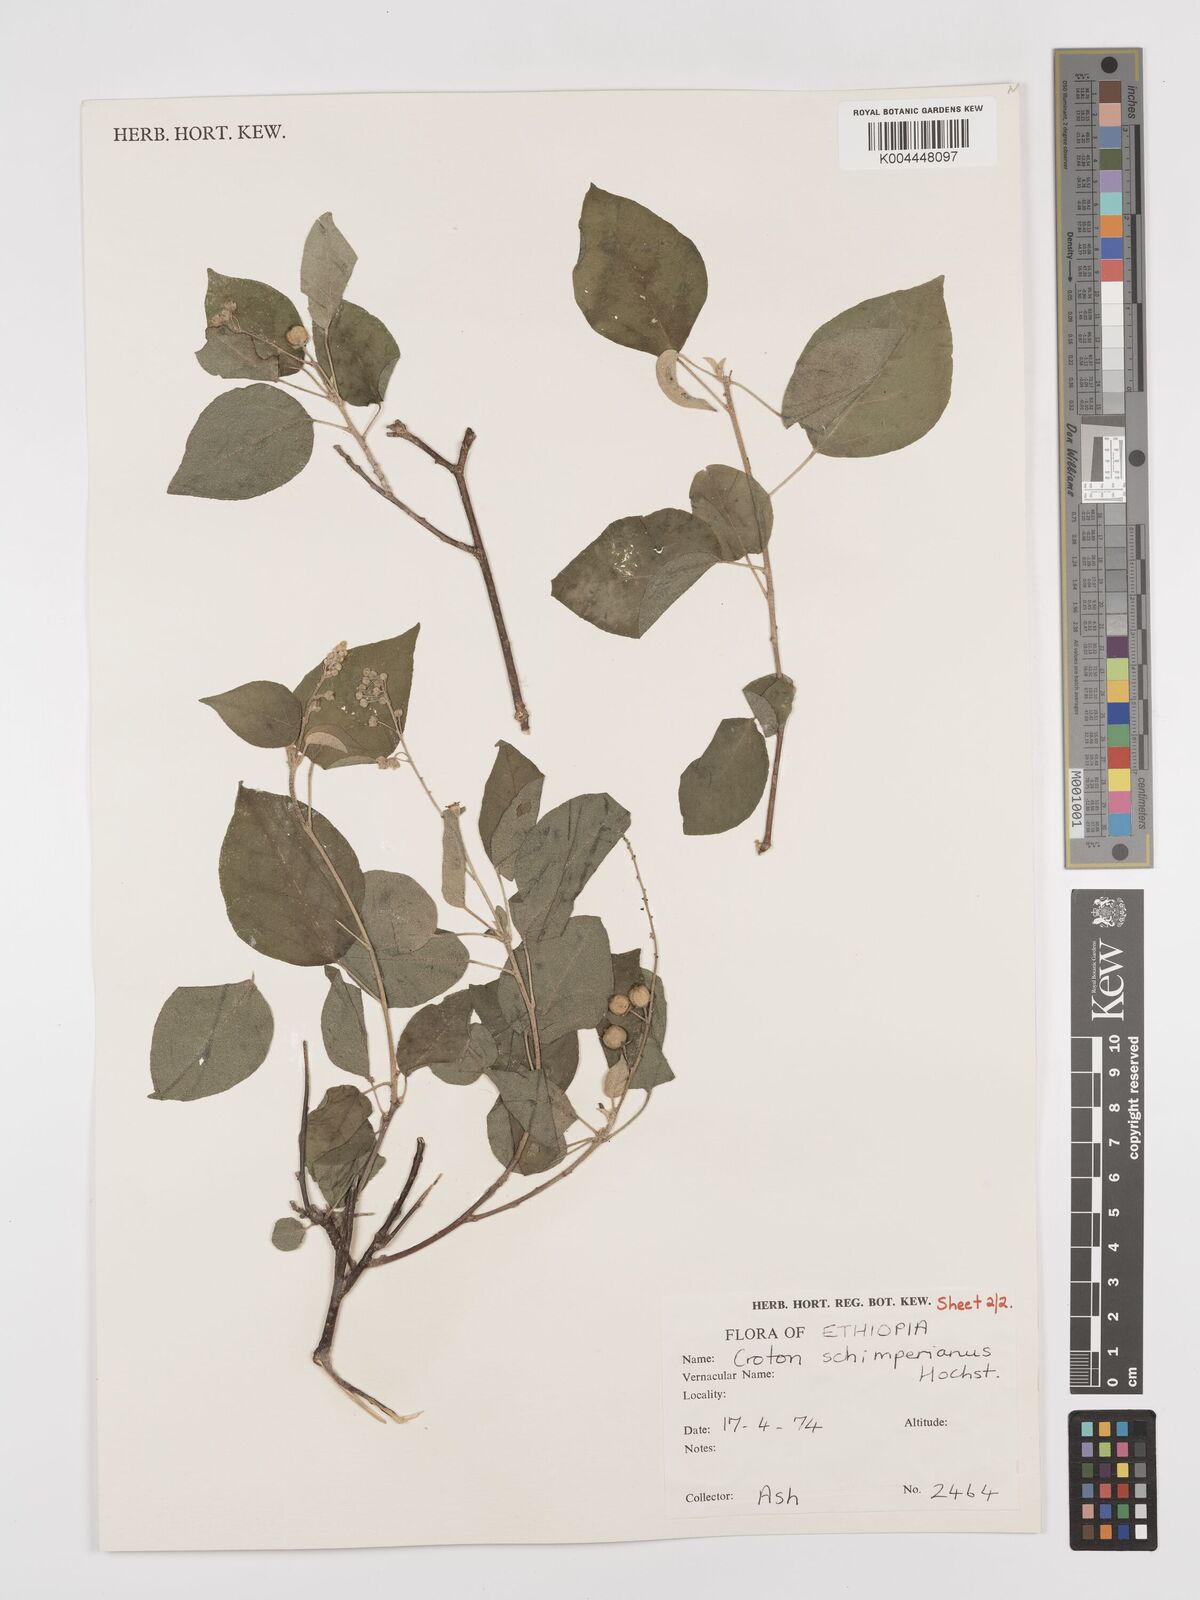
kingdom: Plantae
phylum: Tracheophyta
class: Magnoliopsida
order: Malpighiales
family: Euphorbiaceae
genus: Croton
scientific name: Croton schimperianus
